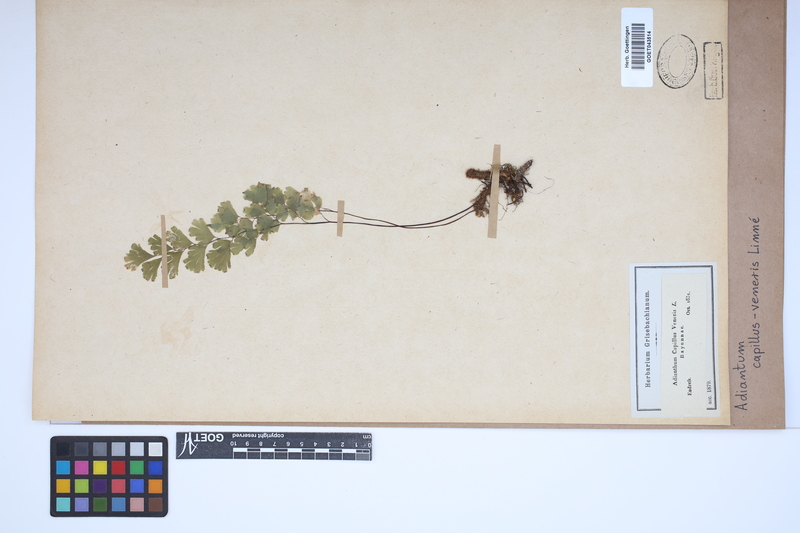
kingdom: Plantae
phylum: Tracheophyta
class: Polypodiopsida
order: Polypodiales
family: Pteridaceae
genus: Adiantum
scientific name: Adiantum capillus-veneris
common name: Maidenhair fern
